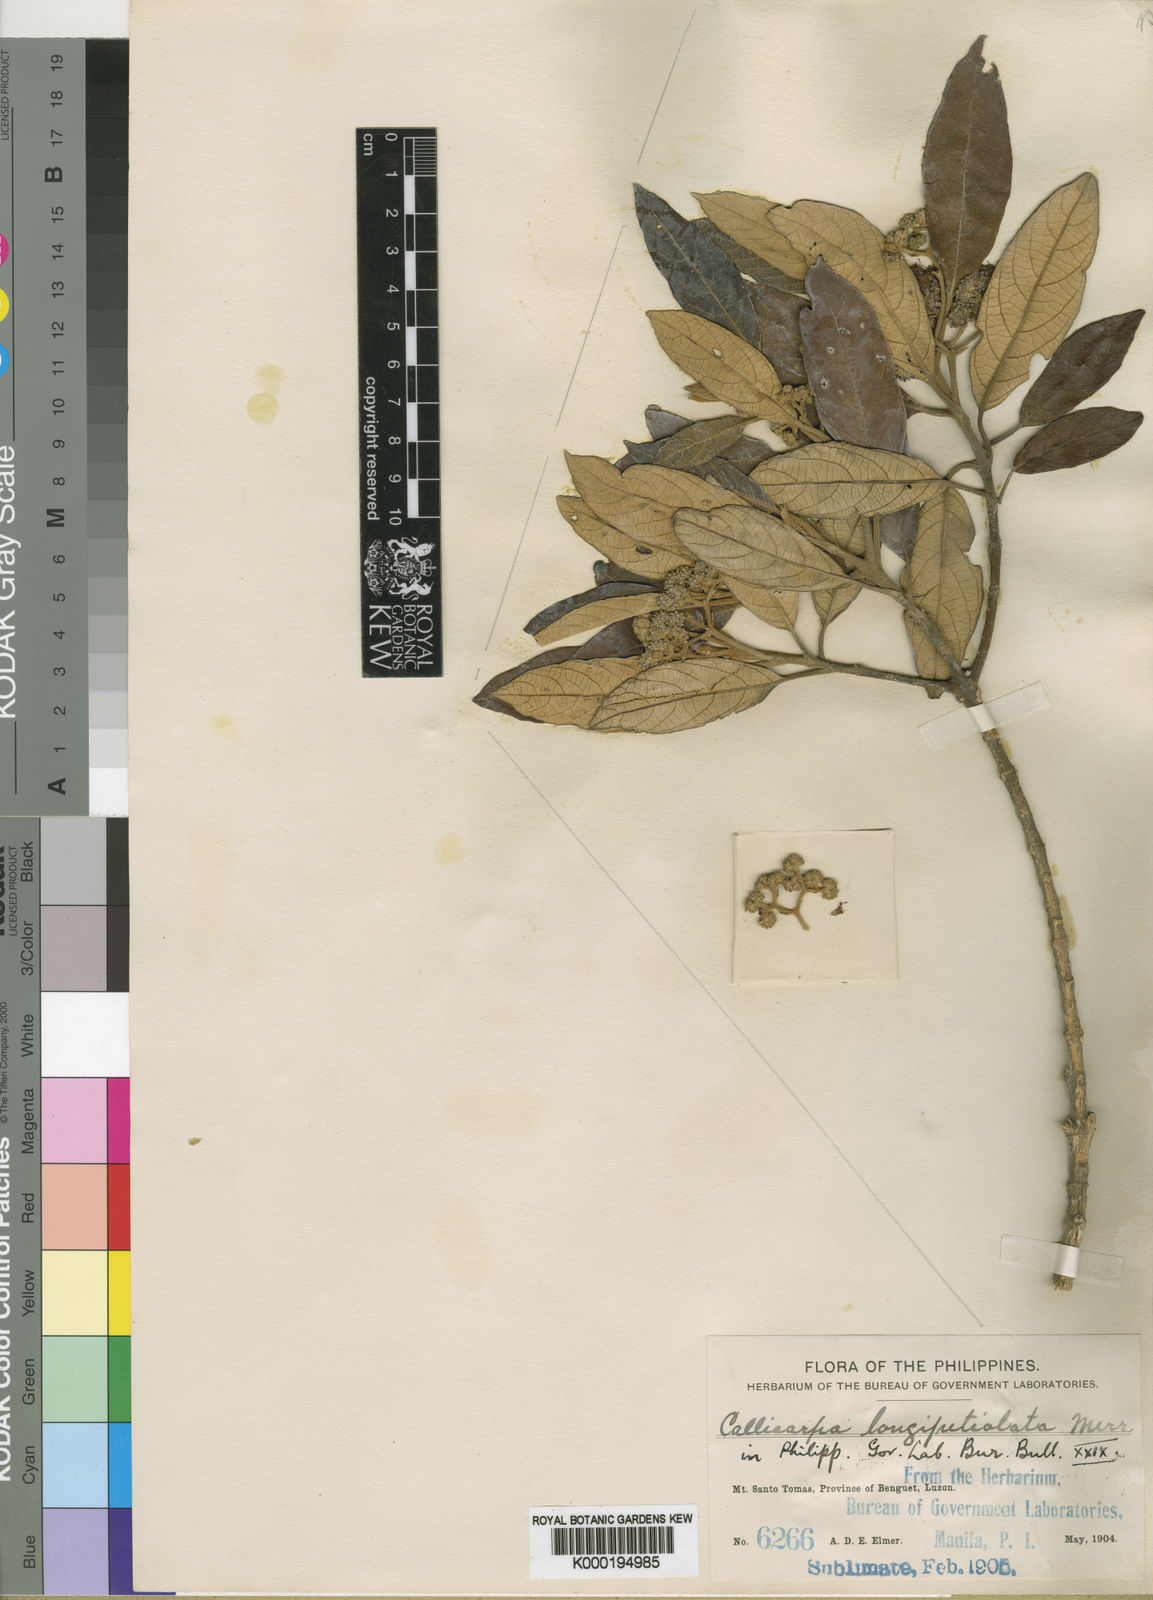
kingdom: Plantae
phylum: Tracheophyta
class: Magnoliopsida
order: Lamiales
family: Lamiaceae
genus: Callicarpa
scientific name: Callicarpa
